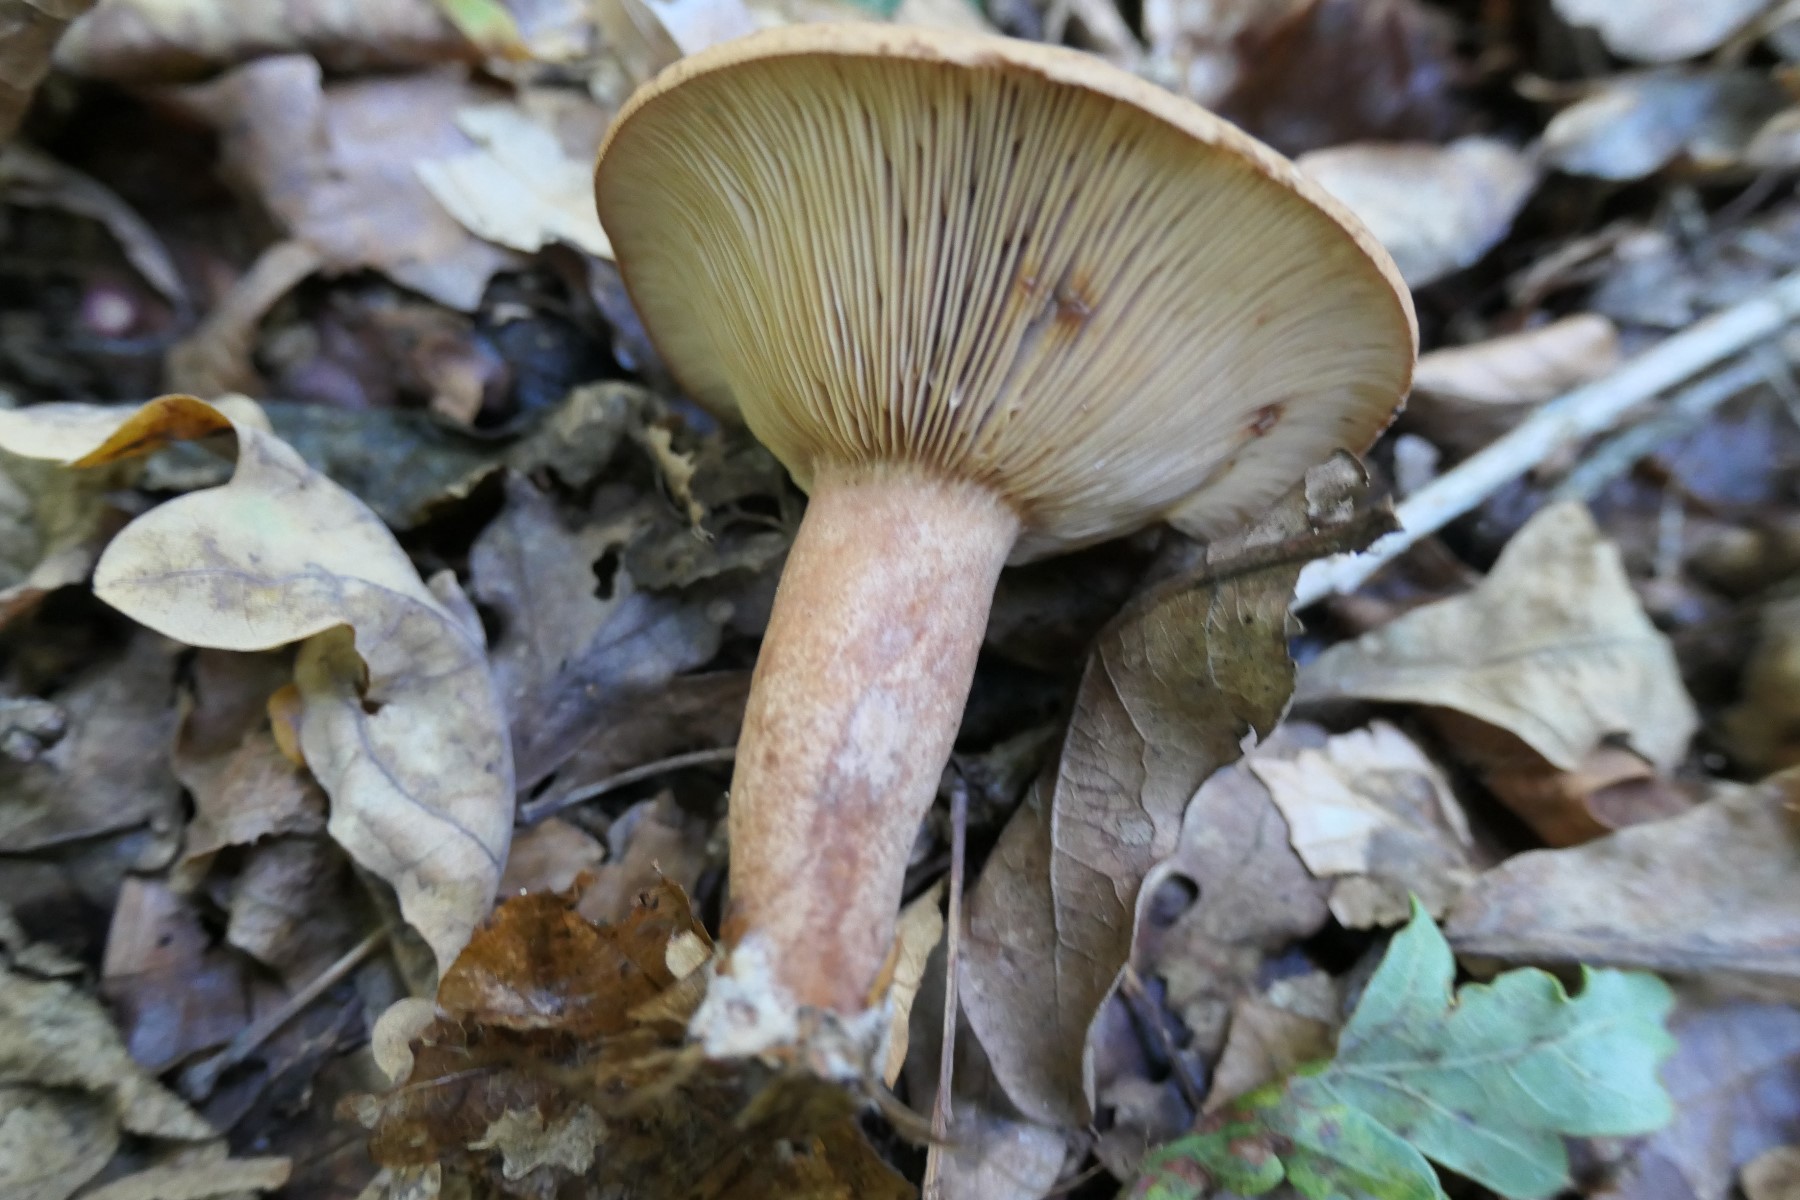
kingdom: Fungi
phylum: Basidiomycota
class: Agaricomycetes
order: Russulales
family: Russulaceae
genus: Lactarius
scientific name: Lactarius quietus
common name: ege-mælkehat
